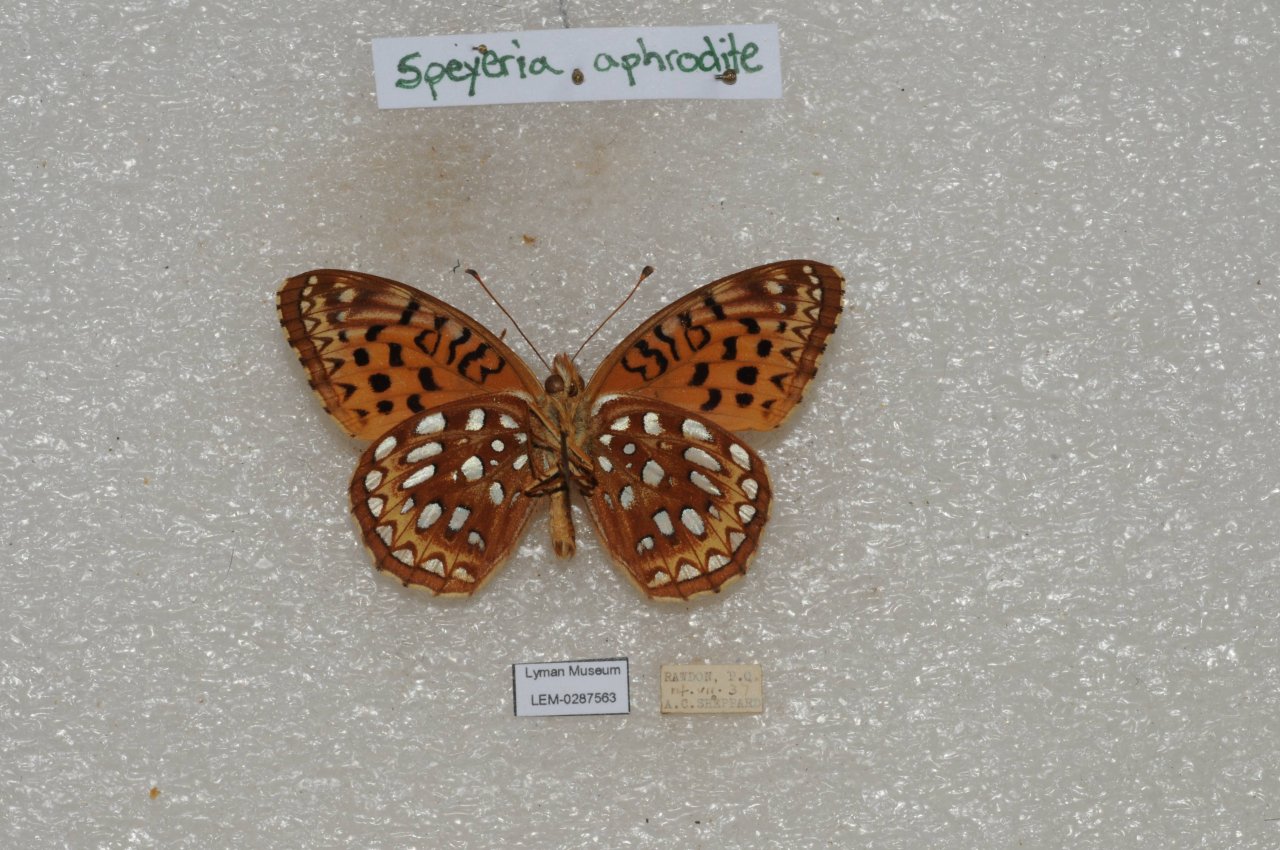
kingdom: Animalia
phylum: Arthropoda
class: Insecta
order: Lepidoptera
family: Nymphalidae
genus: Speyeria
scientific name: Speyeria aphrodite
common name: Aphrodite Fritillary
